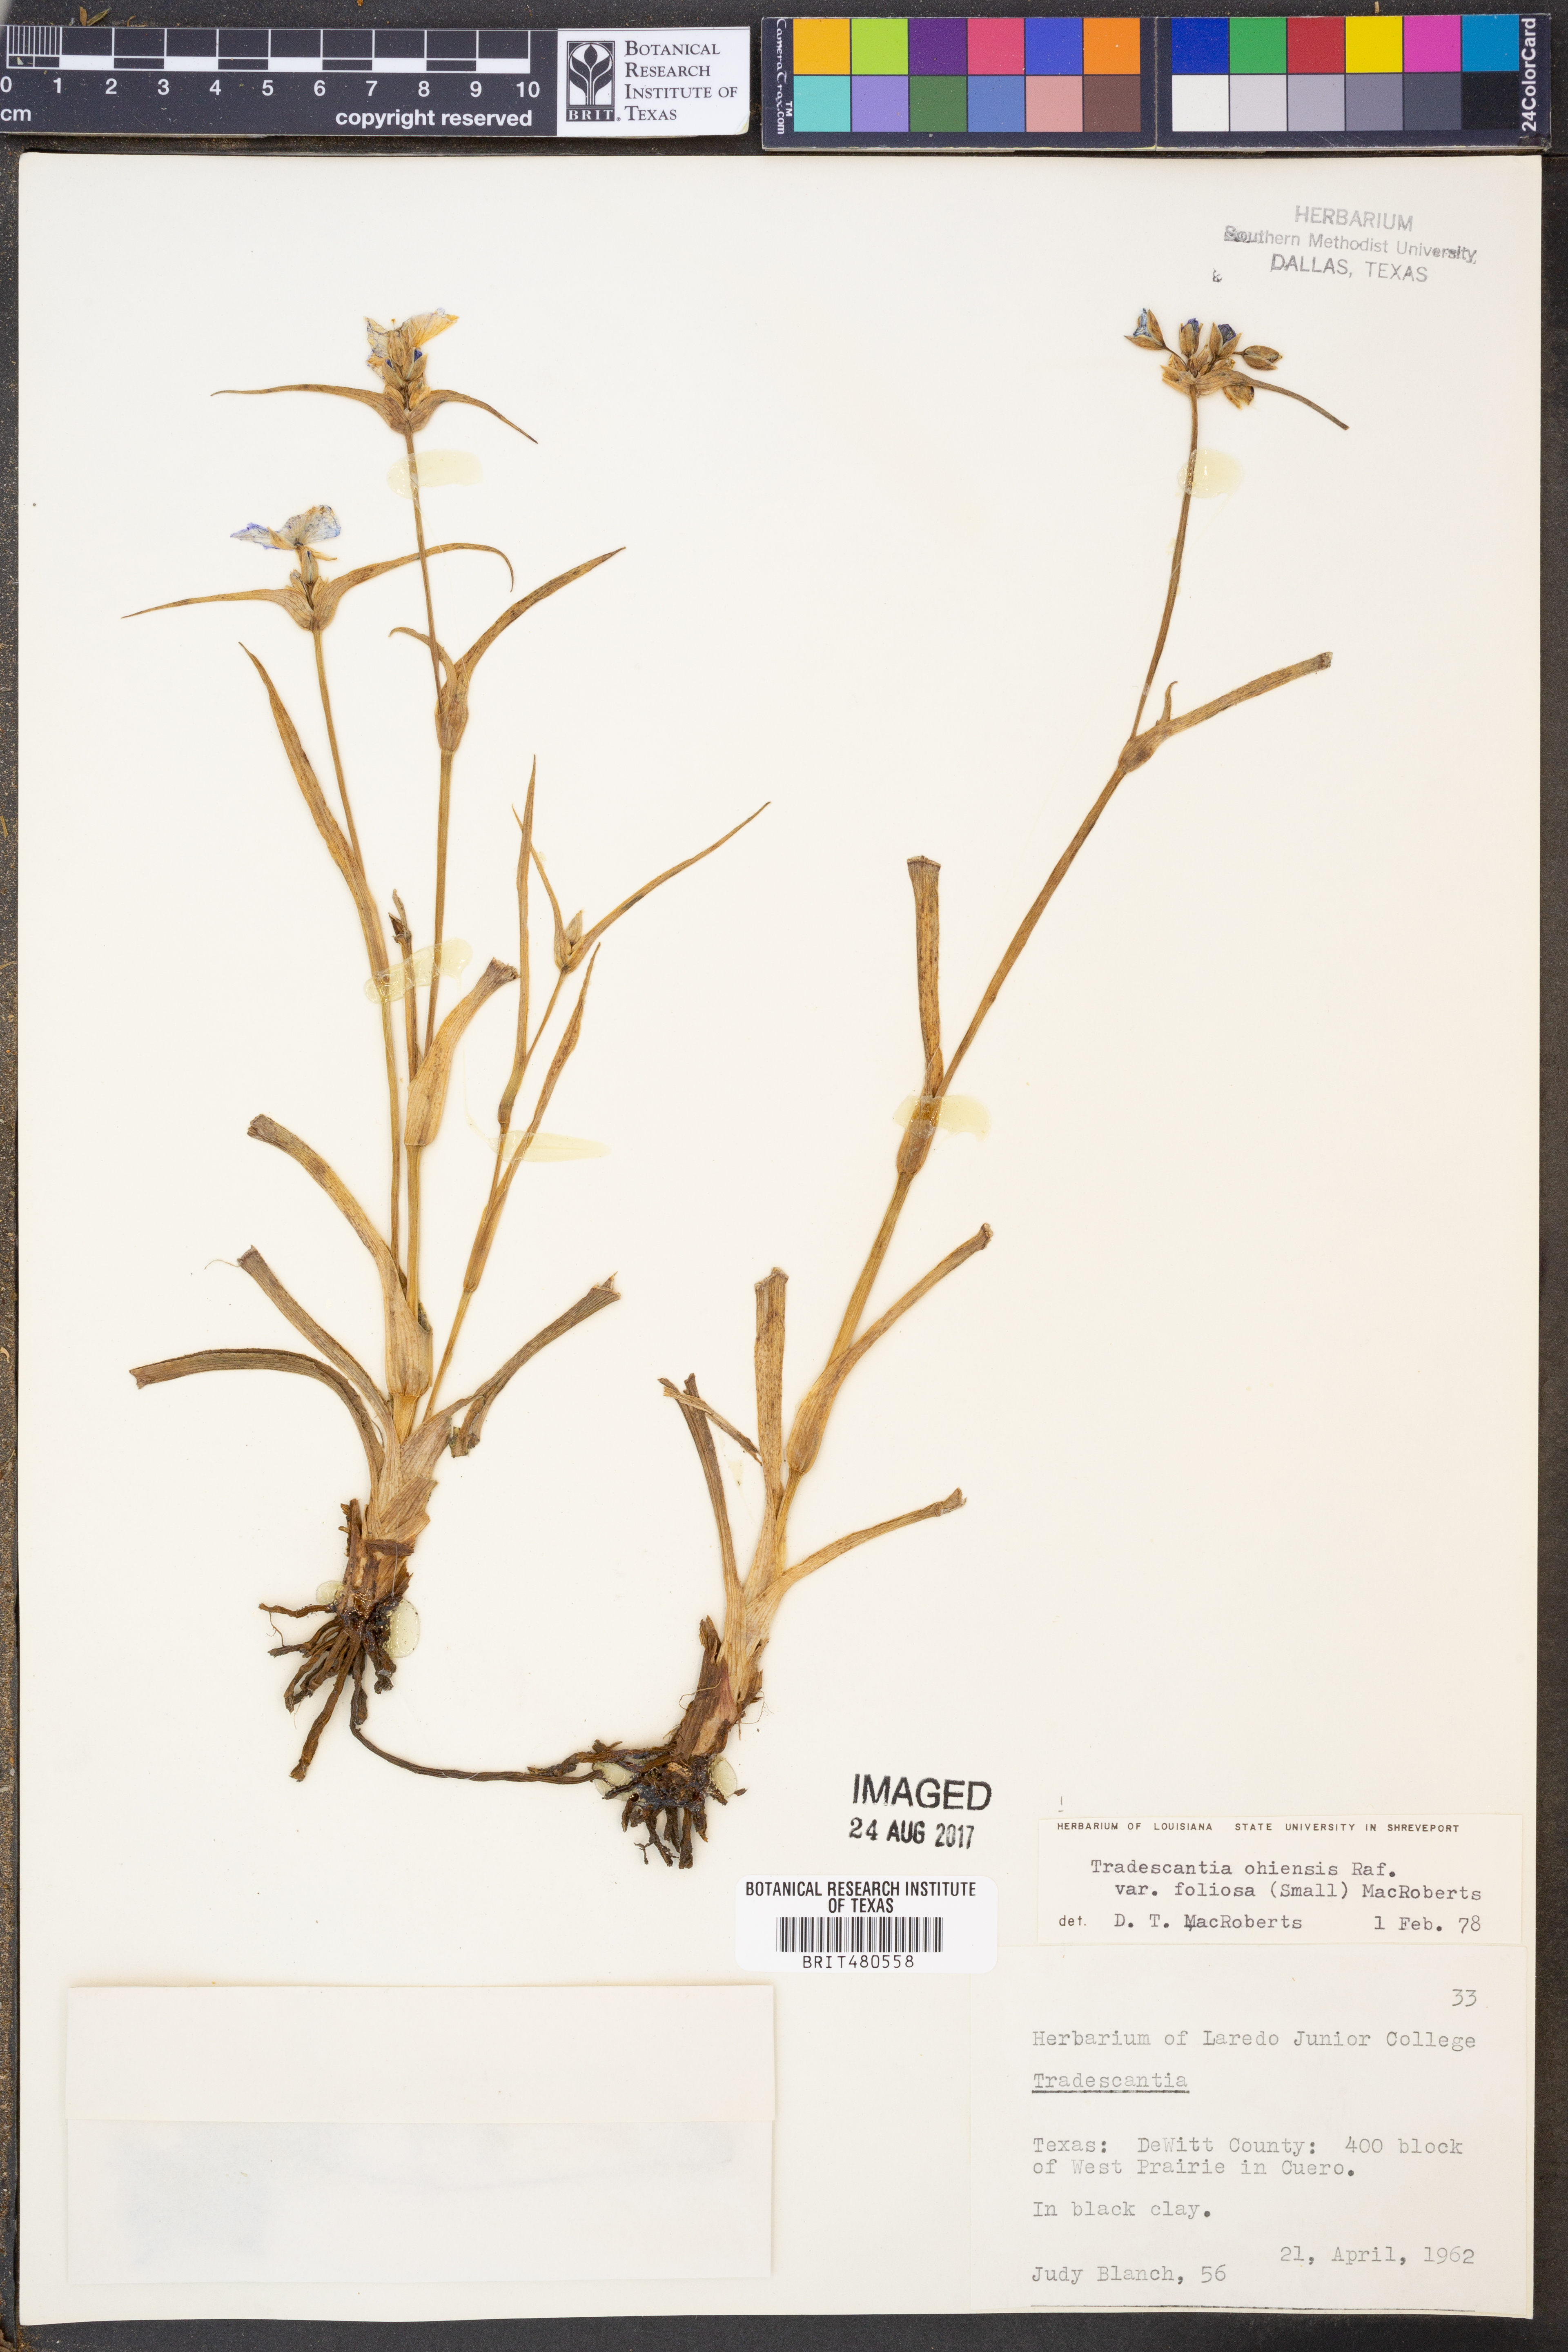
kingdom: Plantae
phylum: Tracheophyta
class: Liliopsida
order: Commelinales
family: Commelinaceae
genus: Tradescantia
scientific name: Tradescantia ohiensis
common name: Ohio spiderwort
